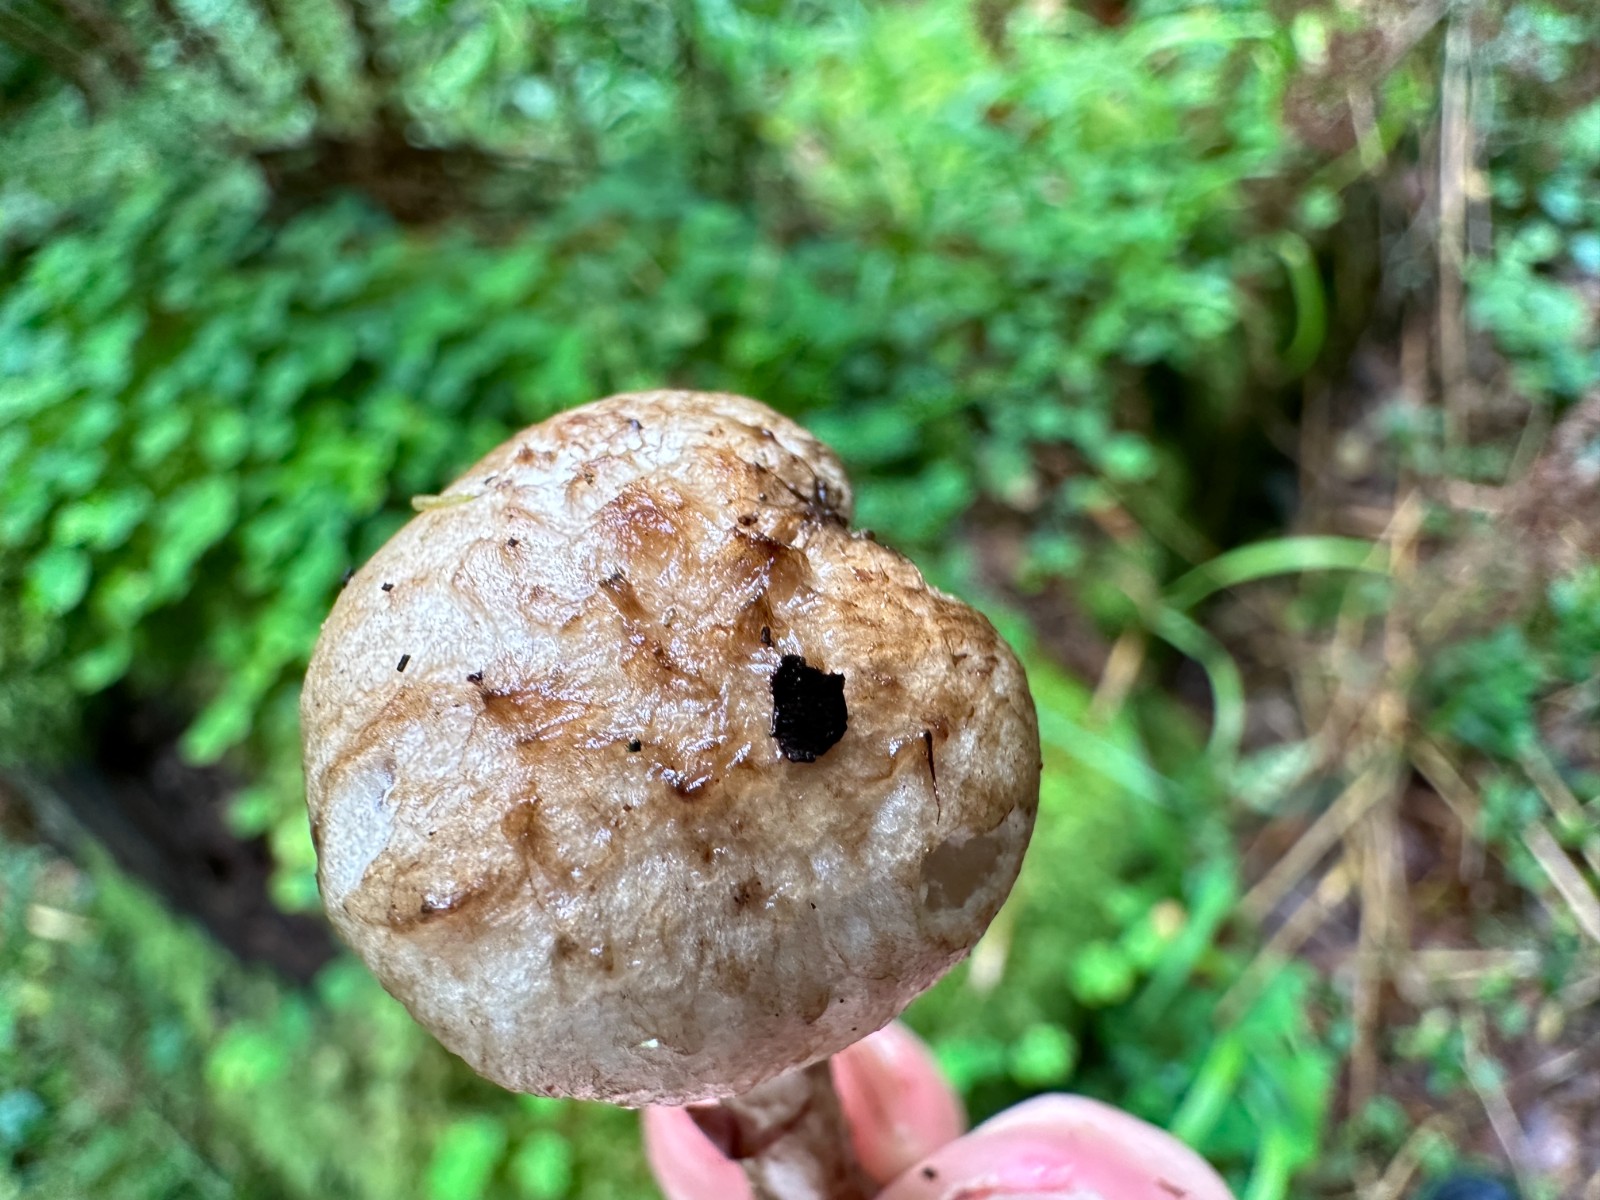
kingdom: Fungi
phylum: Basidiomycota
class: Agaricomycetes
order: Agaricales
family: Psathyrellaceae
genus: Psathyrella
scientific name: Psathyrella maculata
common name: sortskællet mørkhat
